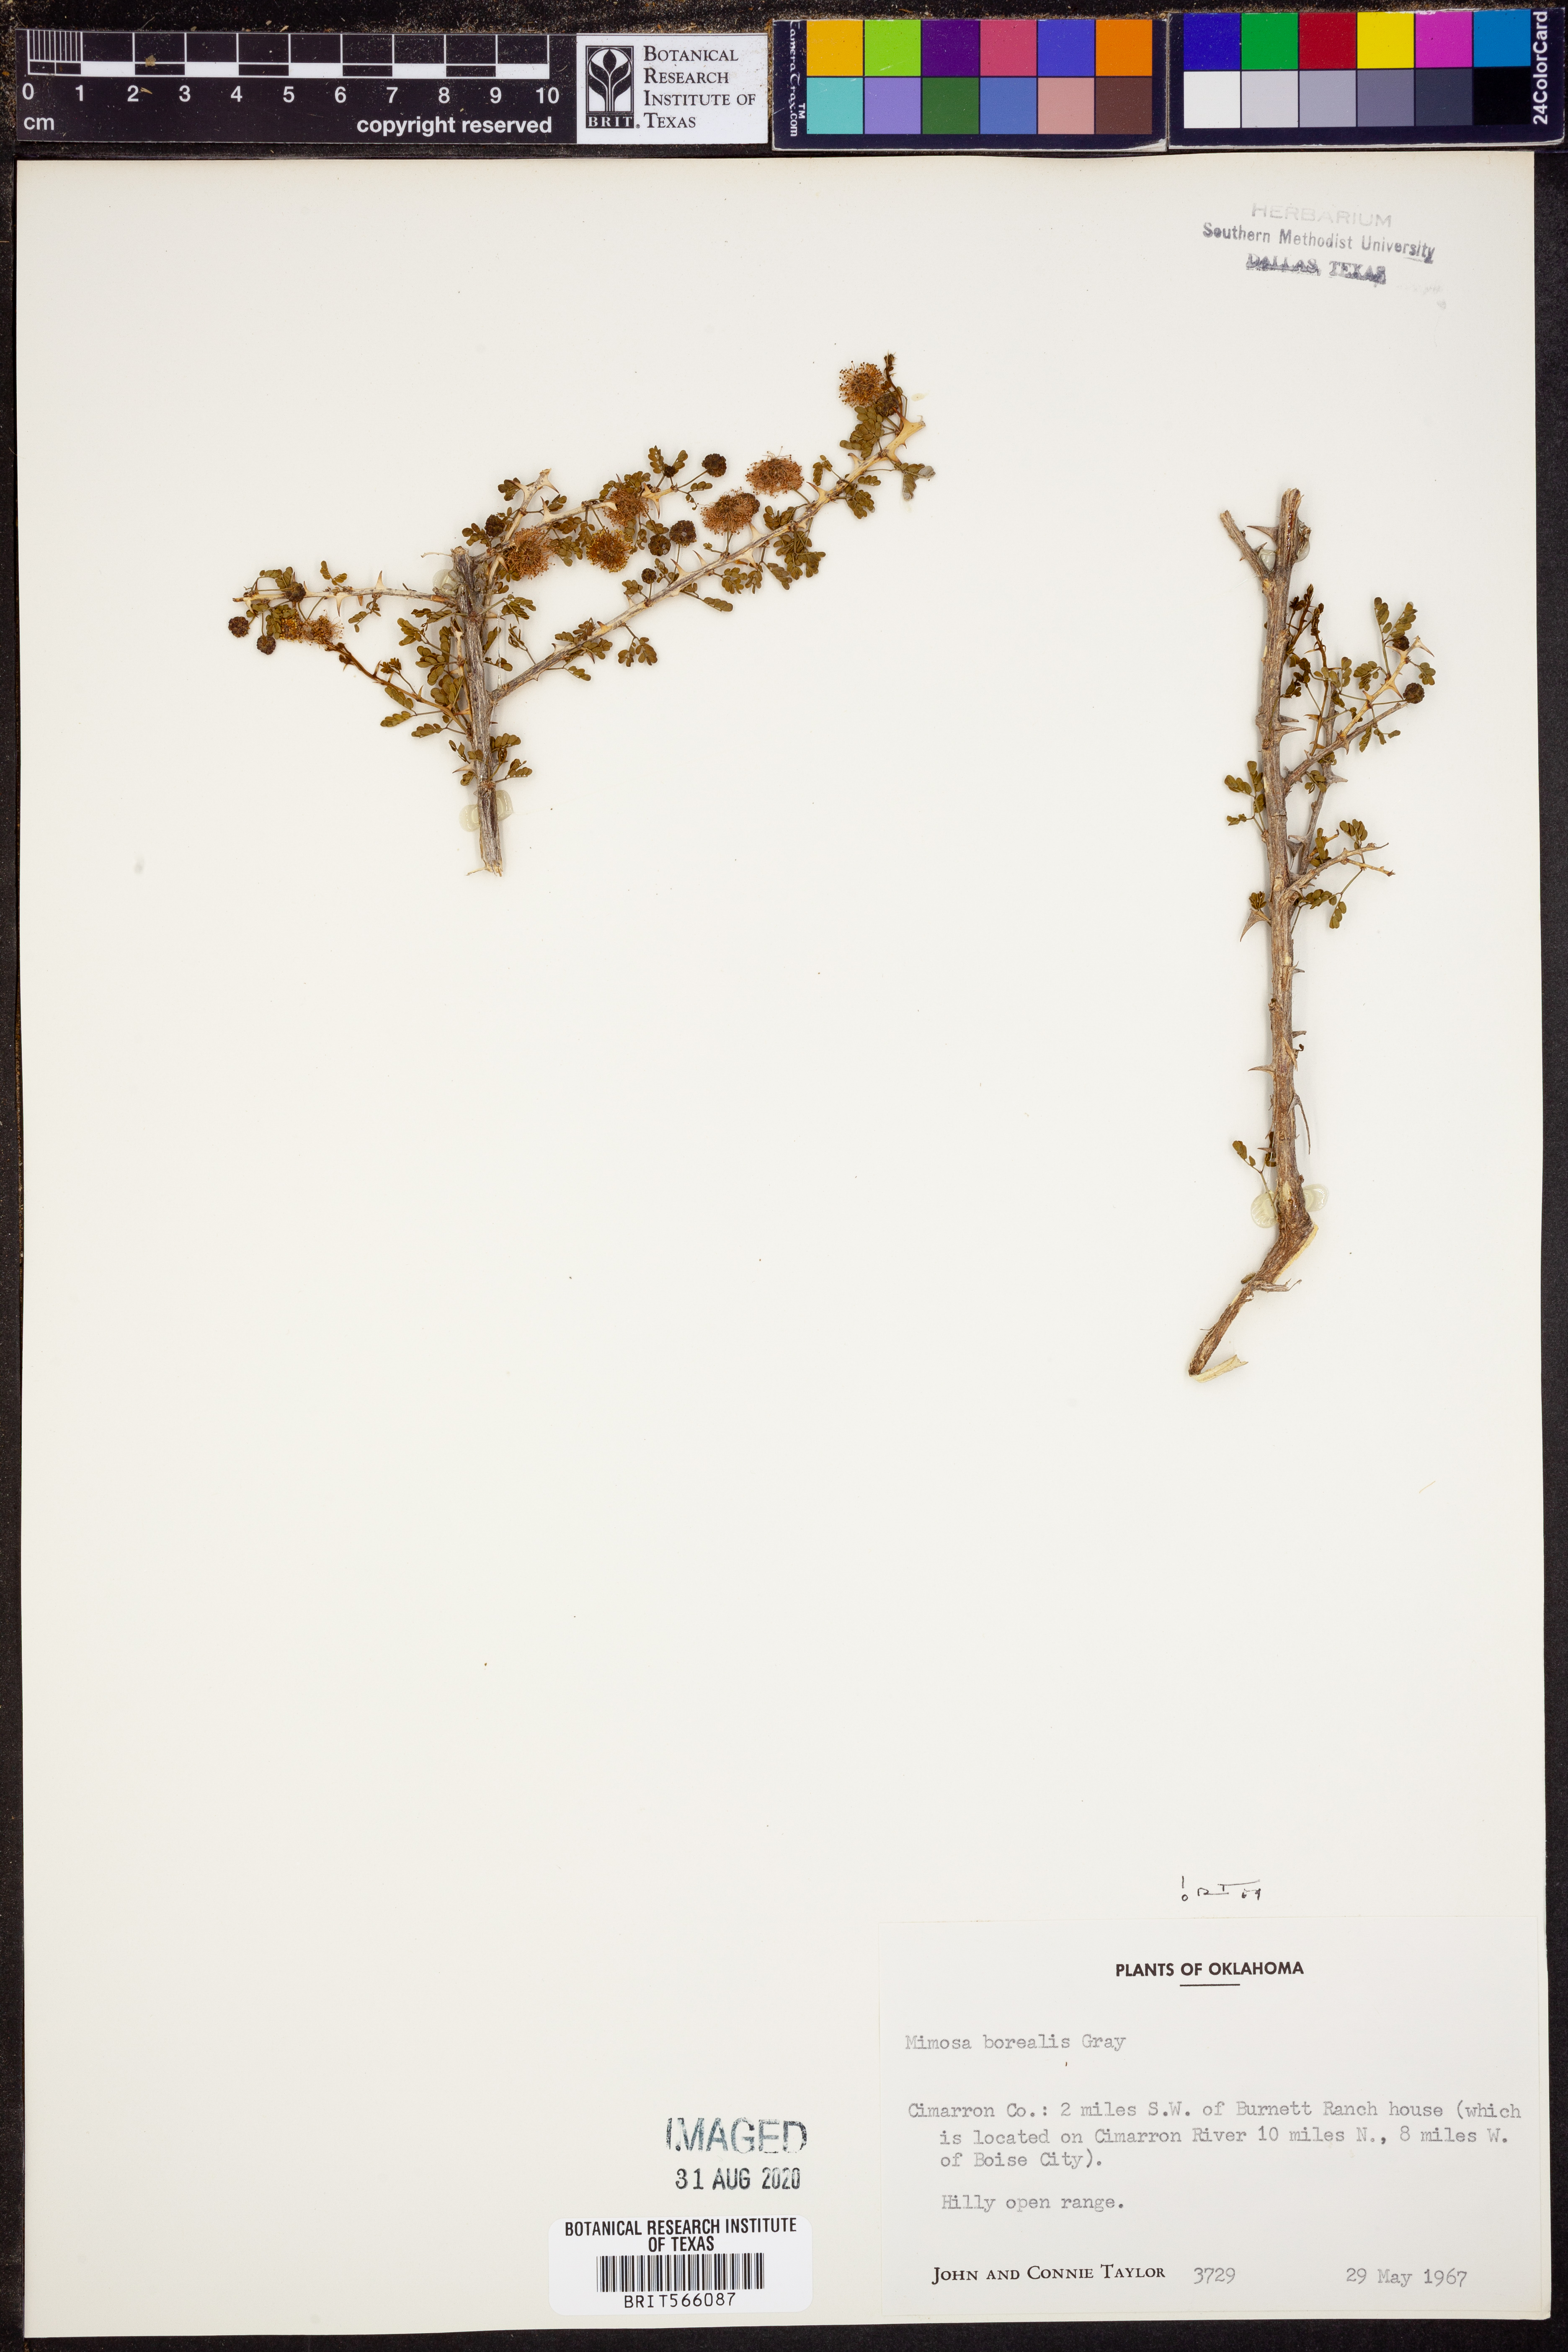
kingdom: Plantae
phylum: Tracheophyta
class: Magnoliopsida
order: Fabales
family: Fabaceae
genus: Mimosa
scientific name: Mimosa borealis
